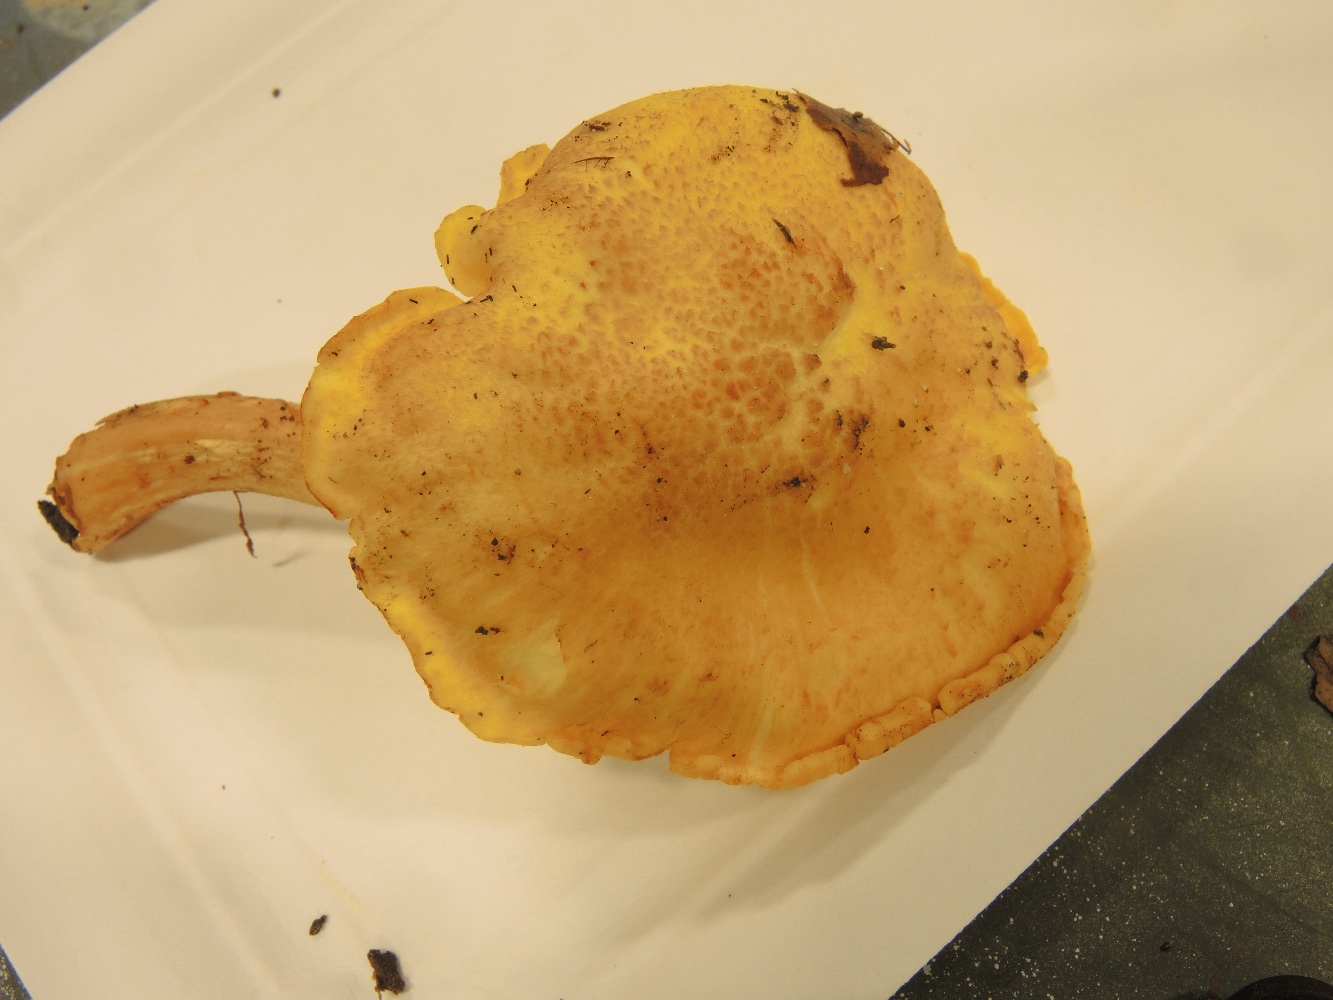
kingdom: Fungi
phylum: Basidiomycota
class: Agaricomycetes
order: Cantharellales
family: Hydnaceae
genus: Cantharellus
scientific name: Cantharellus amethysteus
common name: ametyst-kantarel
